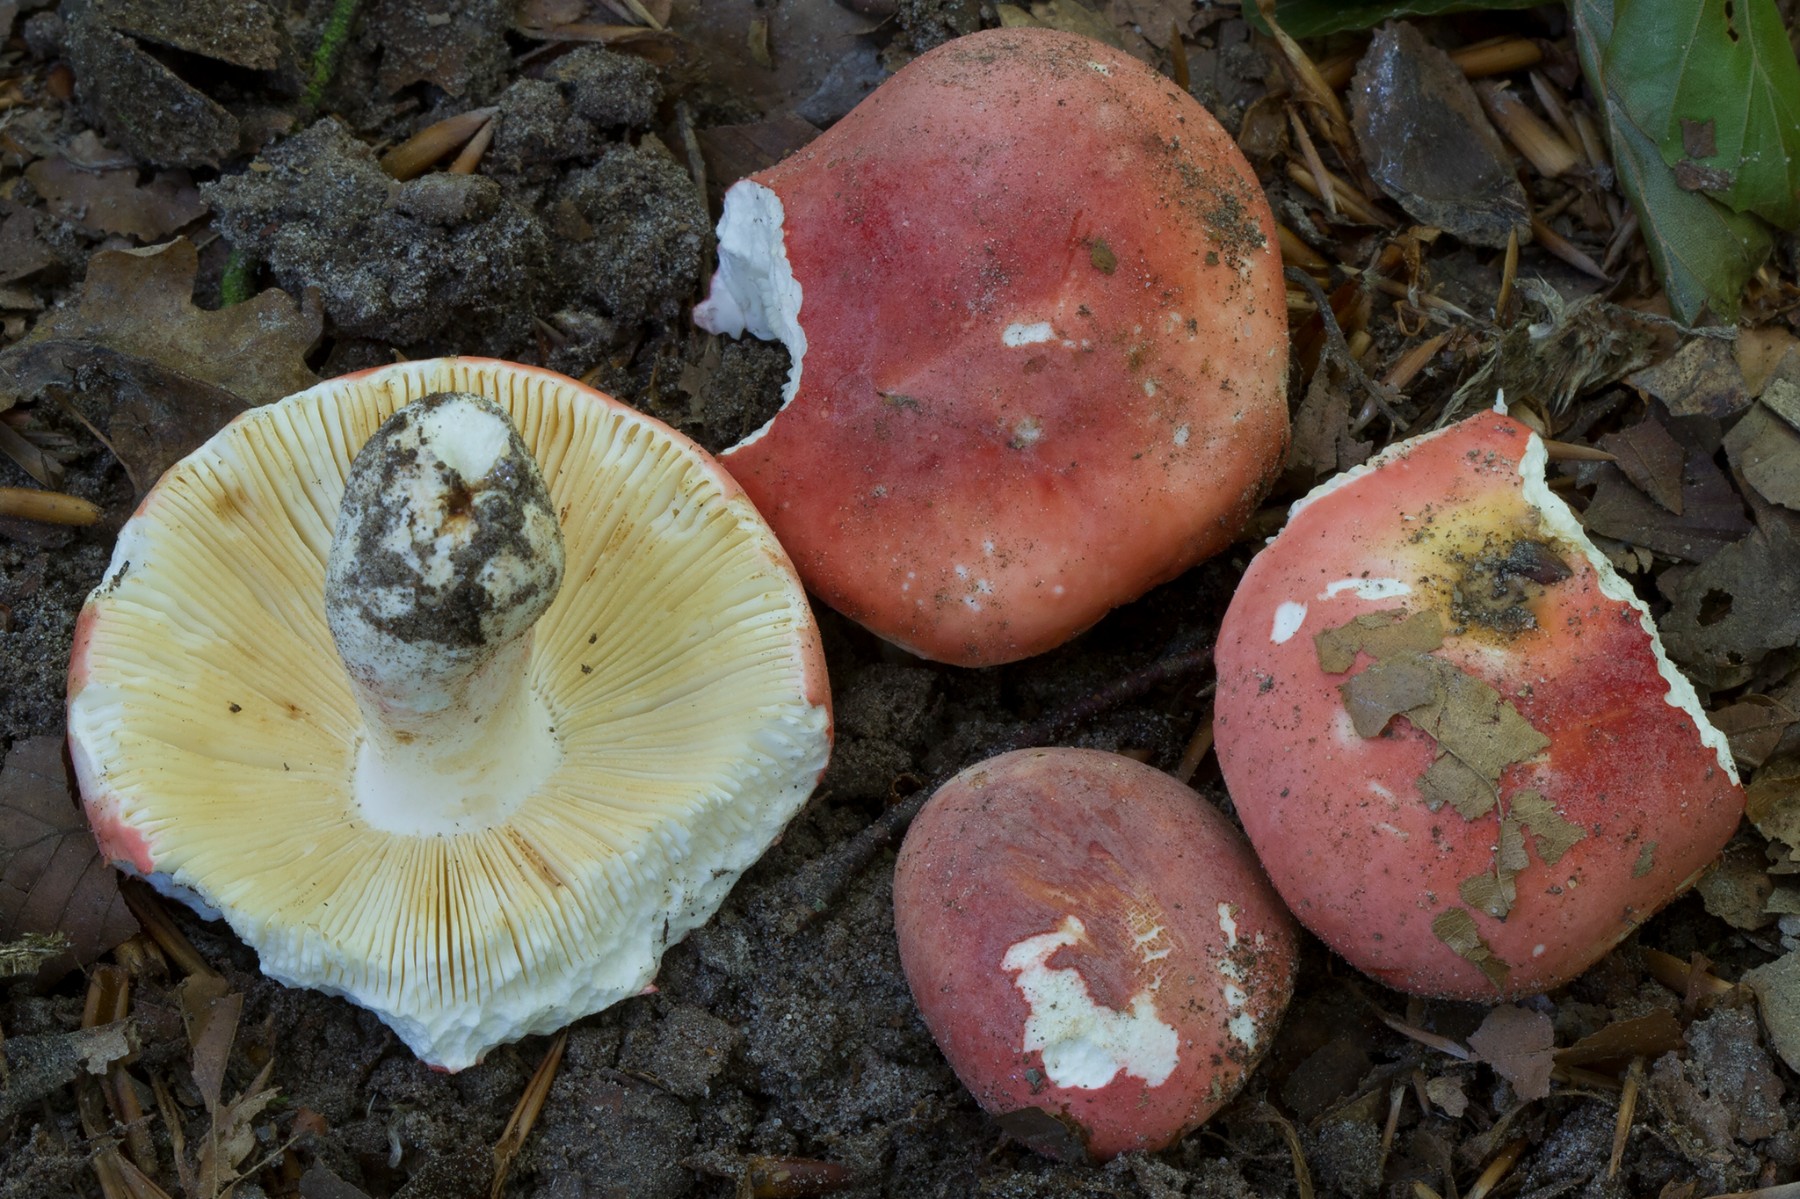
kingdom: Fungi
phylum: Basidiomycota
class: Agaricomycetes
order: Russulales
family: Russulaceae
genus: Russula
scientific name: Russula rosea
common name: fastkødet skørhat
